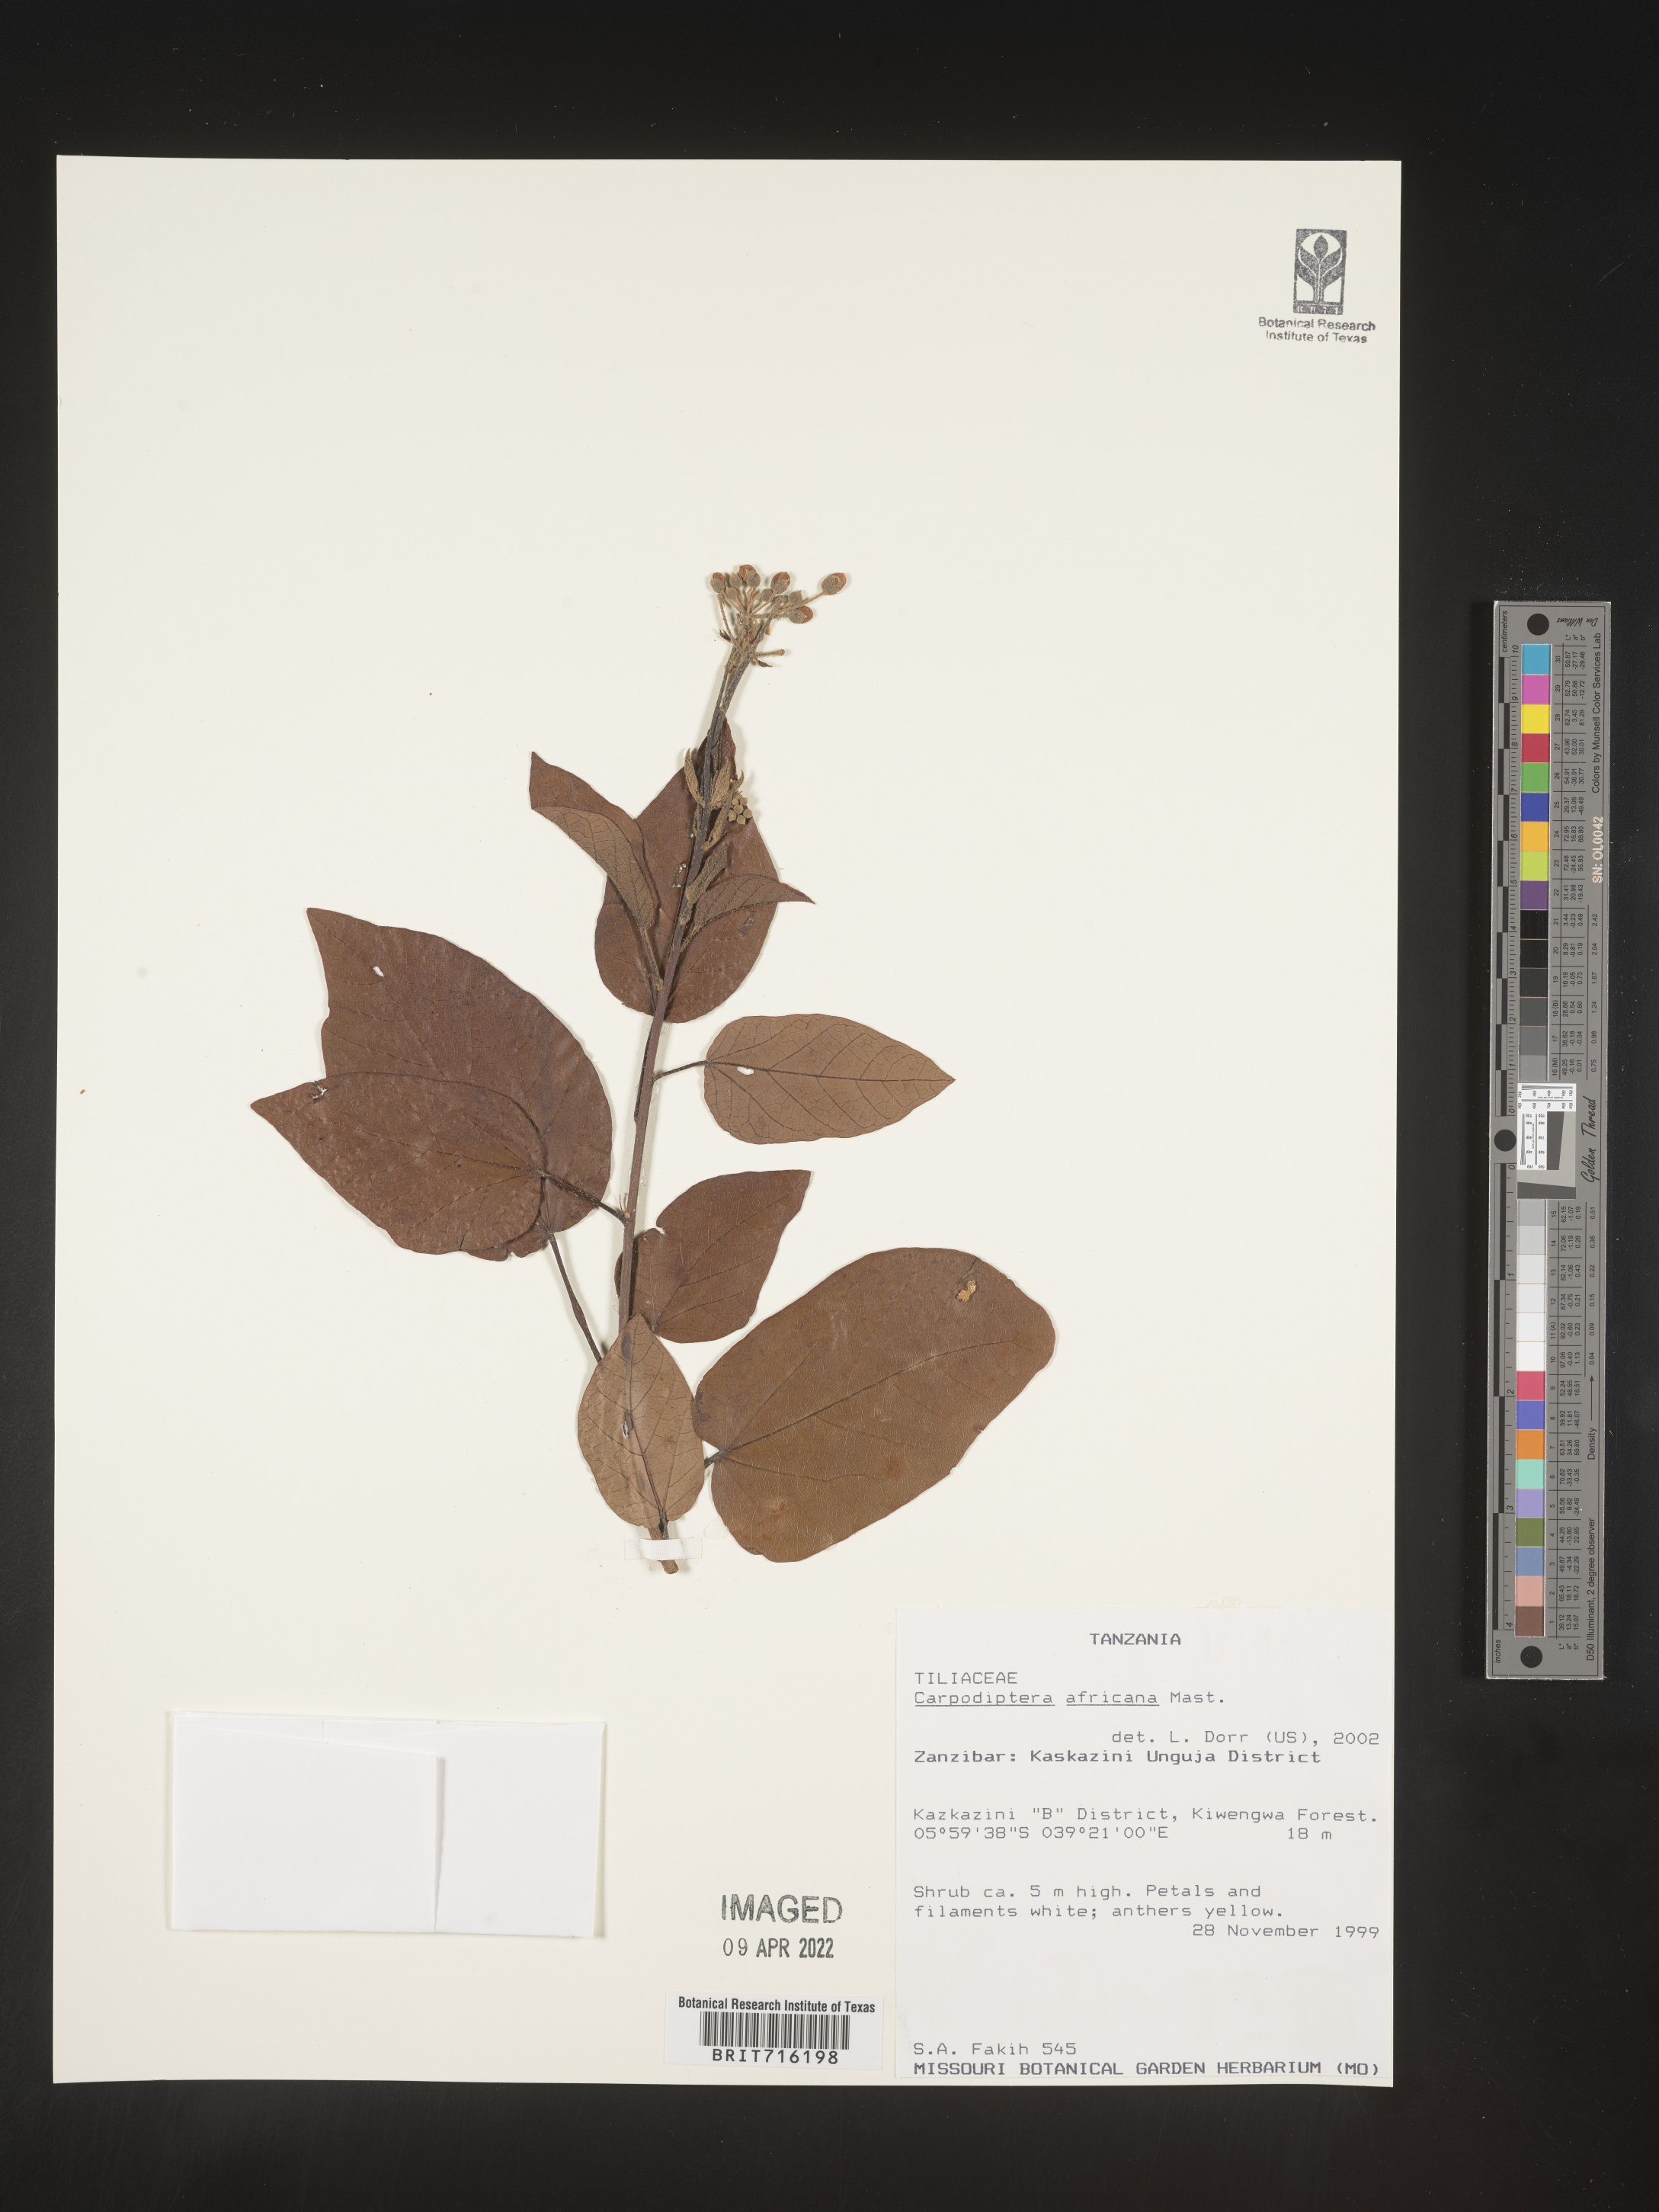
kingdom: Plantae
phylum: Tracheophyta
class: Magnoliopsida
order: Malvales
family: Malvaceae
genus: Berrya
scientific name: Berrya africana
